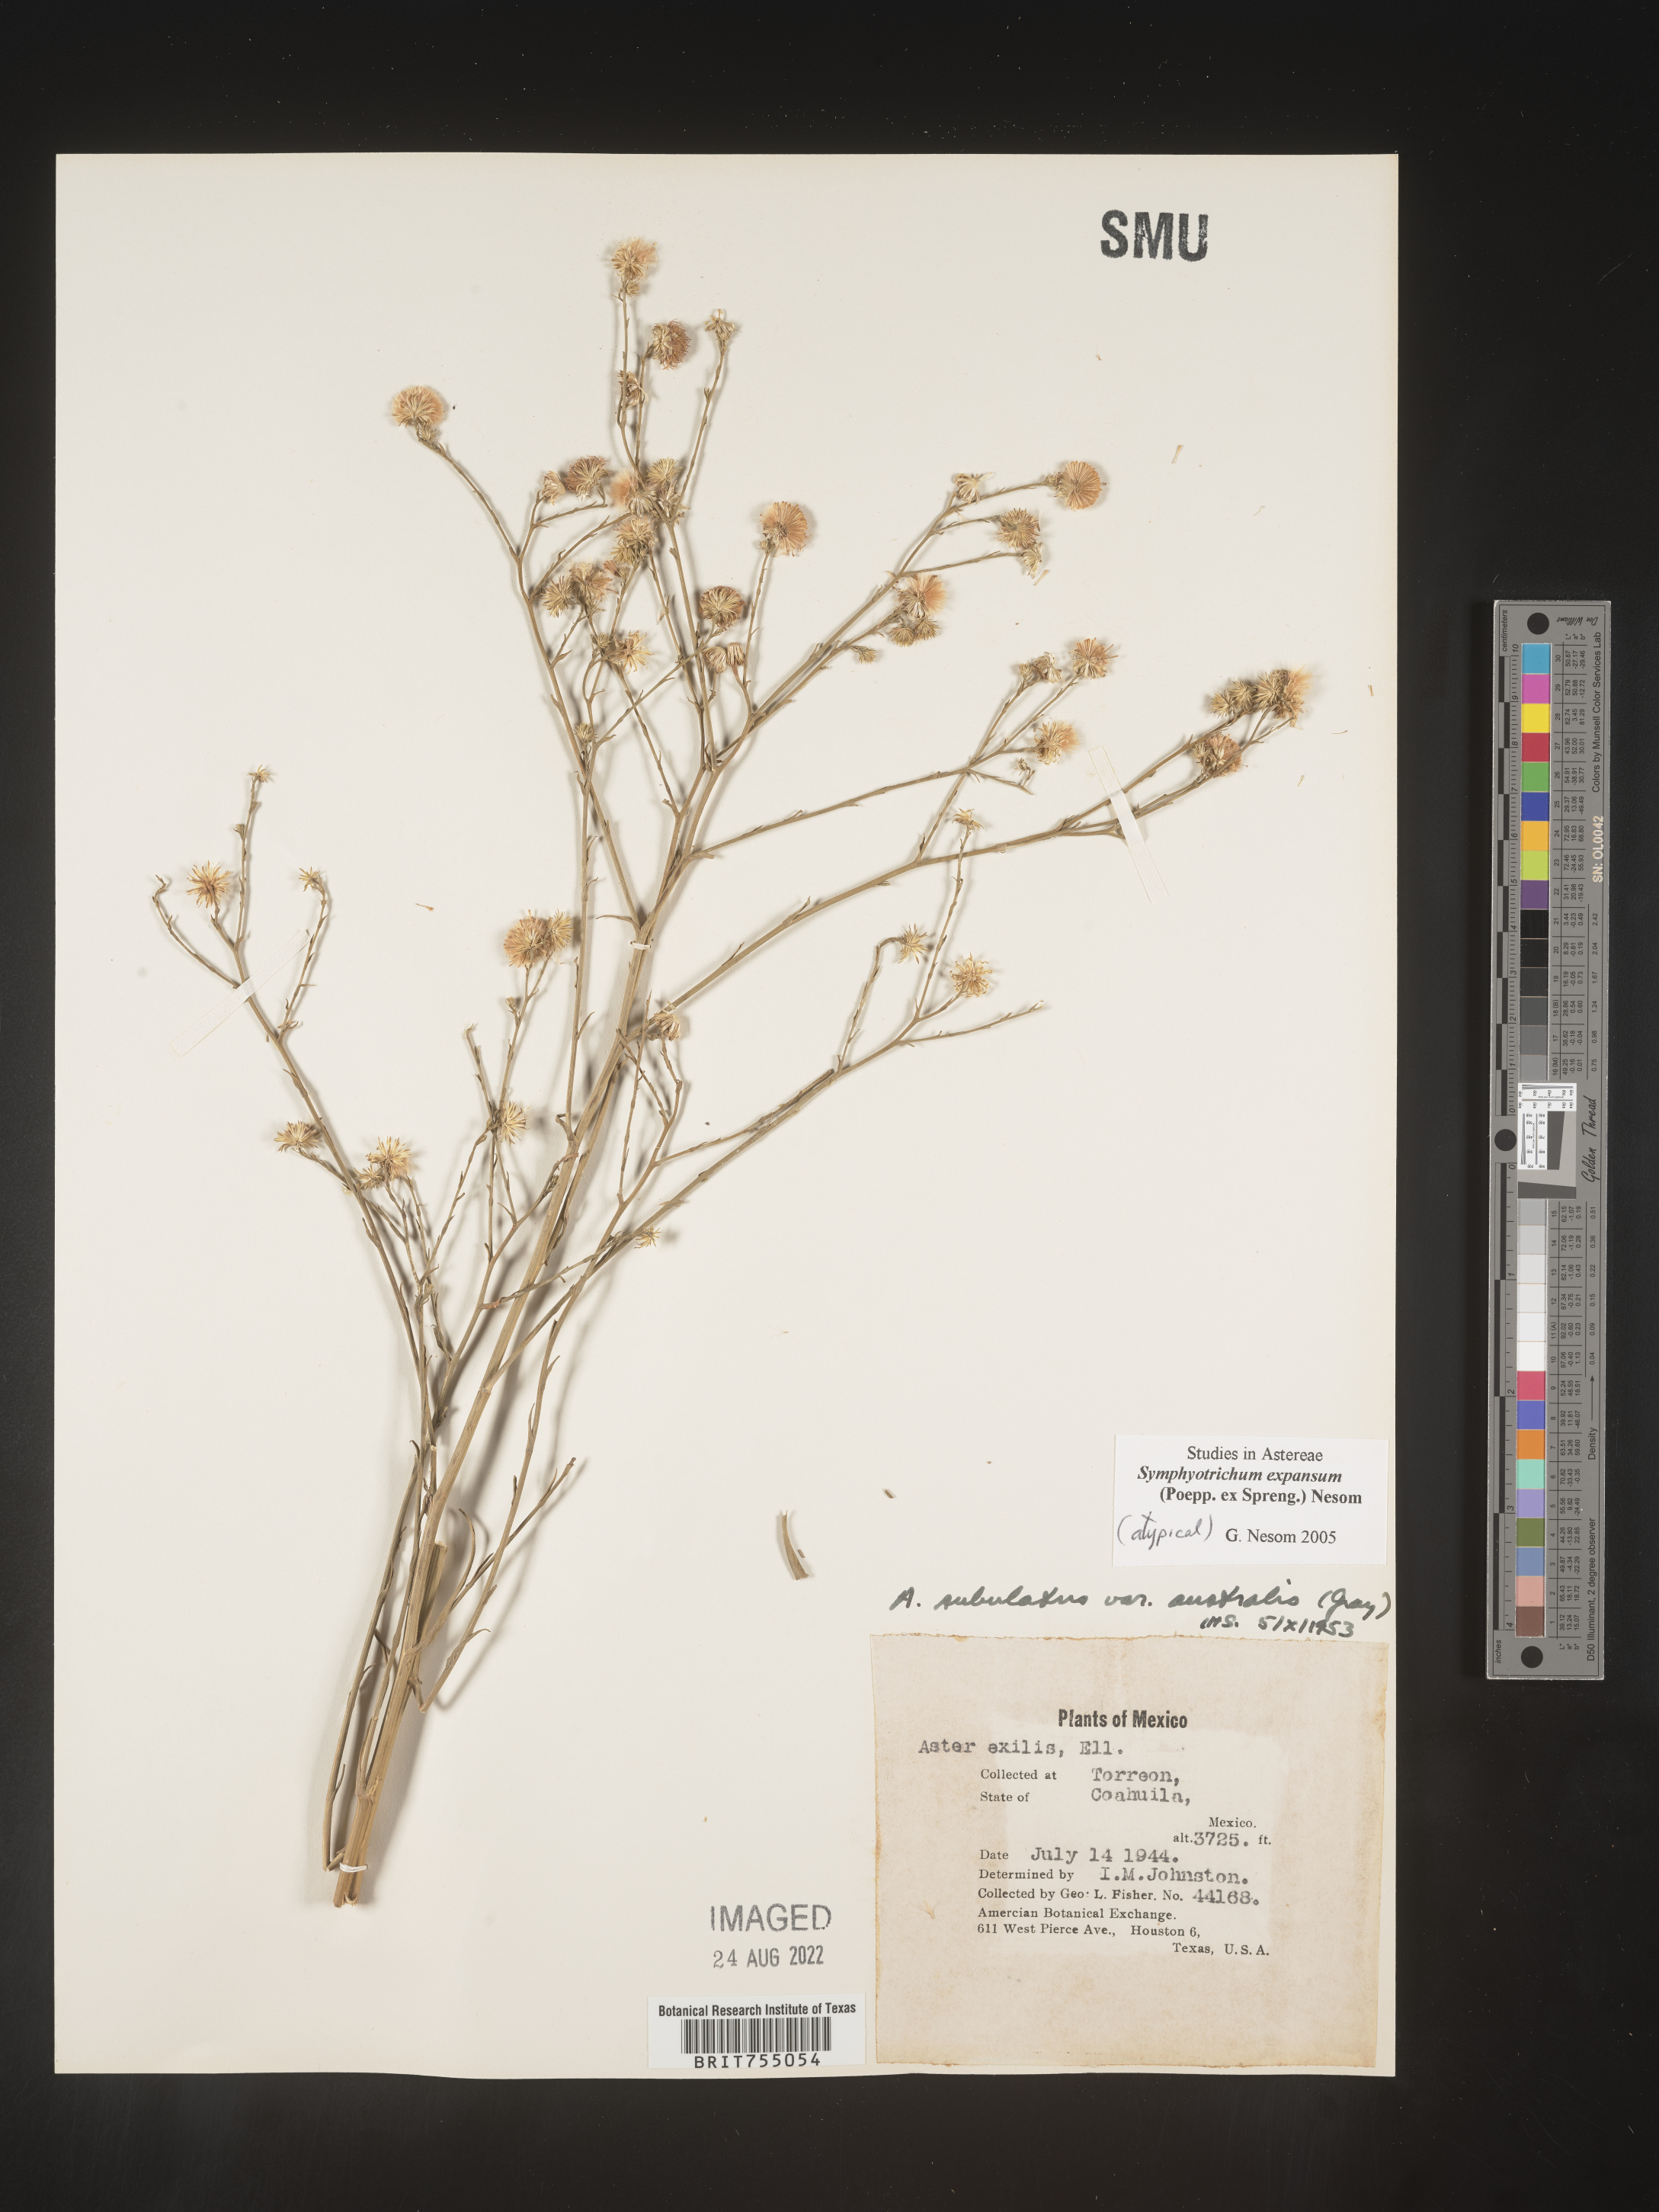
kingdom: Plantae
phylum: Tracheophyta
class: Magnoliopsida
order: Asterales
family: Asteraceae
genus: Symphyotrichum
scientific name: Symphyotrichum expansum
